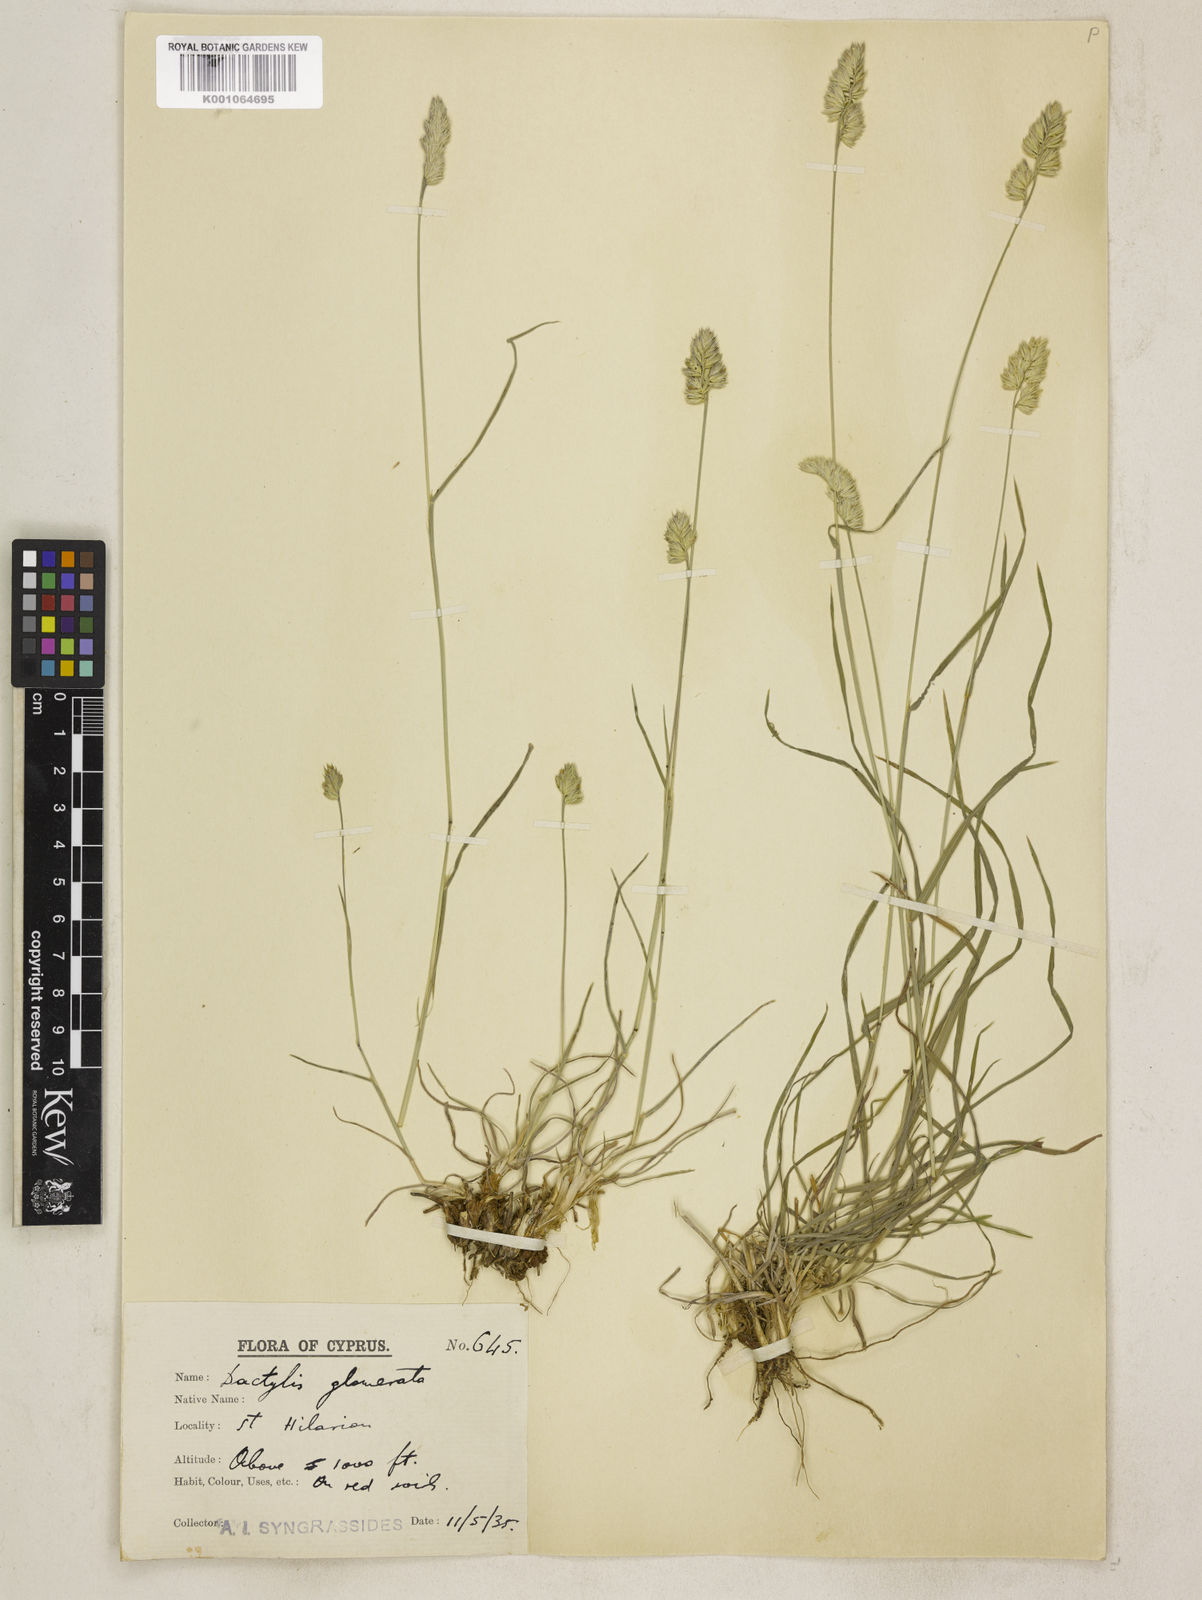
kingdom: Plantae
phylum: Tracheophyta
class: Liliopsida
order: Poales
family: Poaceae
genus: Dactylis
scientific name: Dactylis glomerata
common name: Orchardgrass
